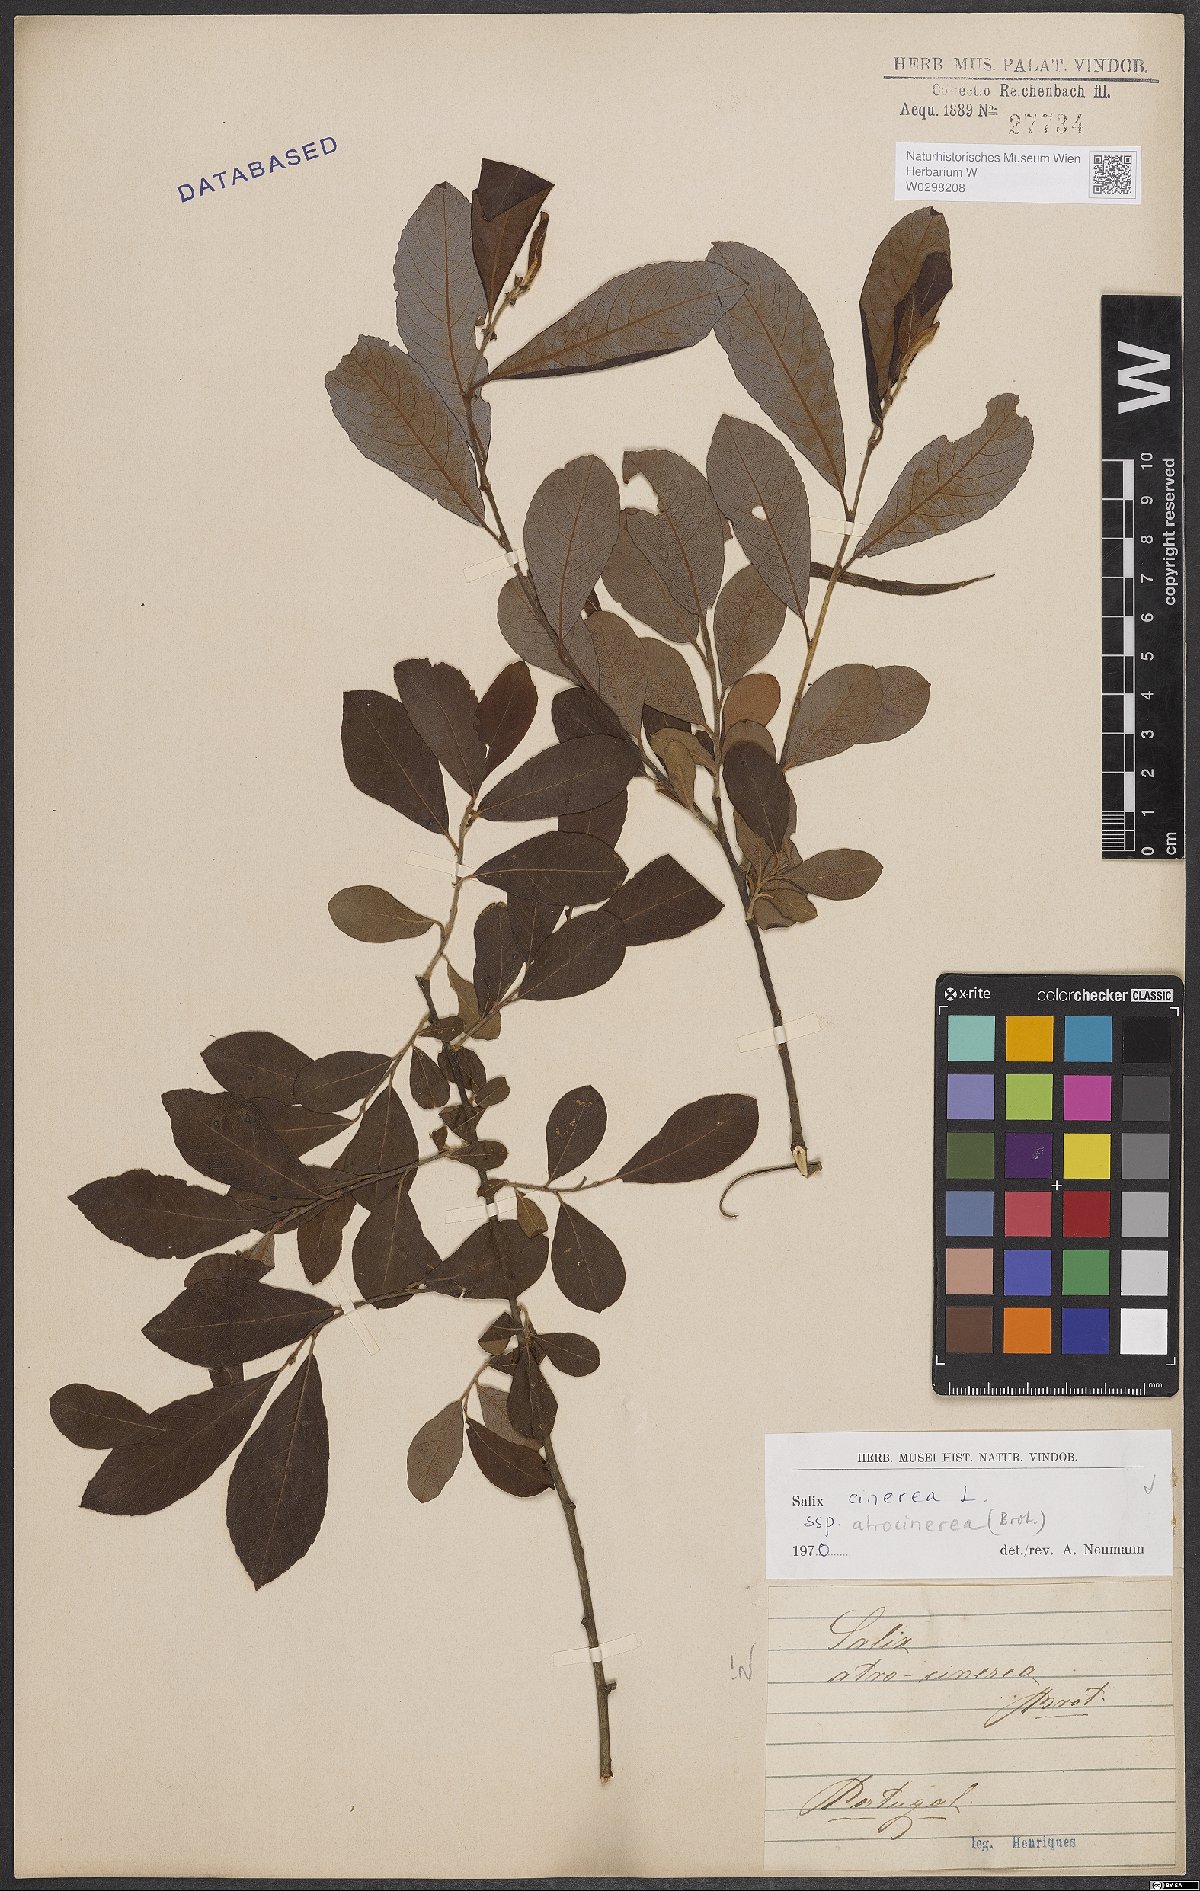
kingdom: Plantae
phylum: Tracheophyta
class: Magnoliopsida
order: Malpighiales
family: Salicaceae
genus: Salix
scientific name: Salix atrocinerea
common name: Rusty willow
